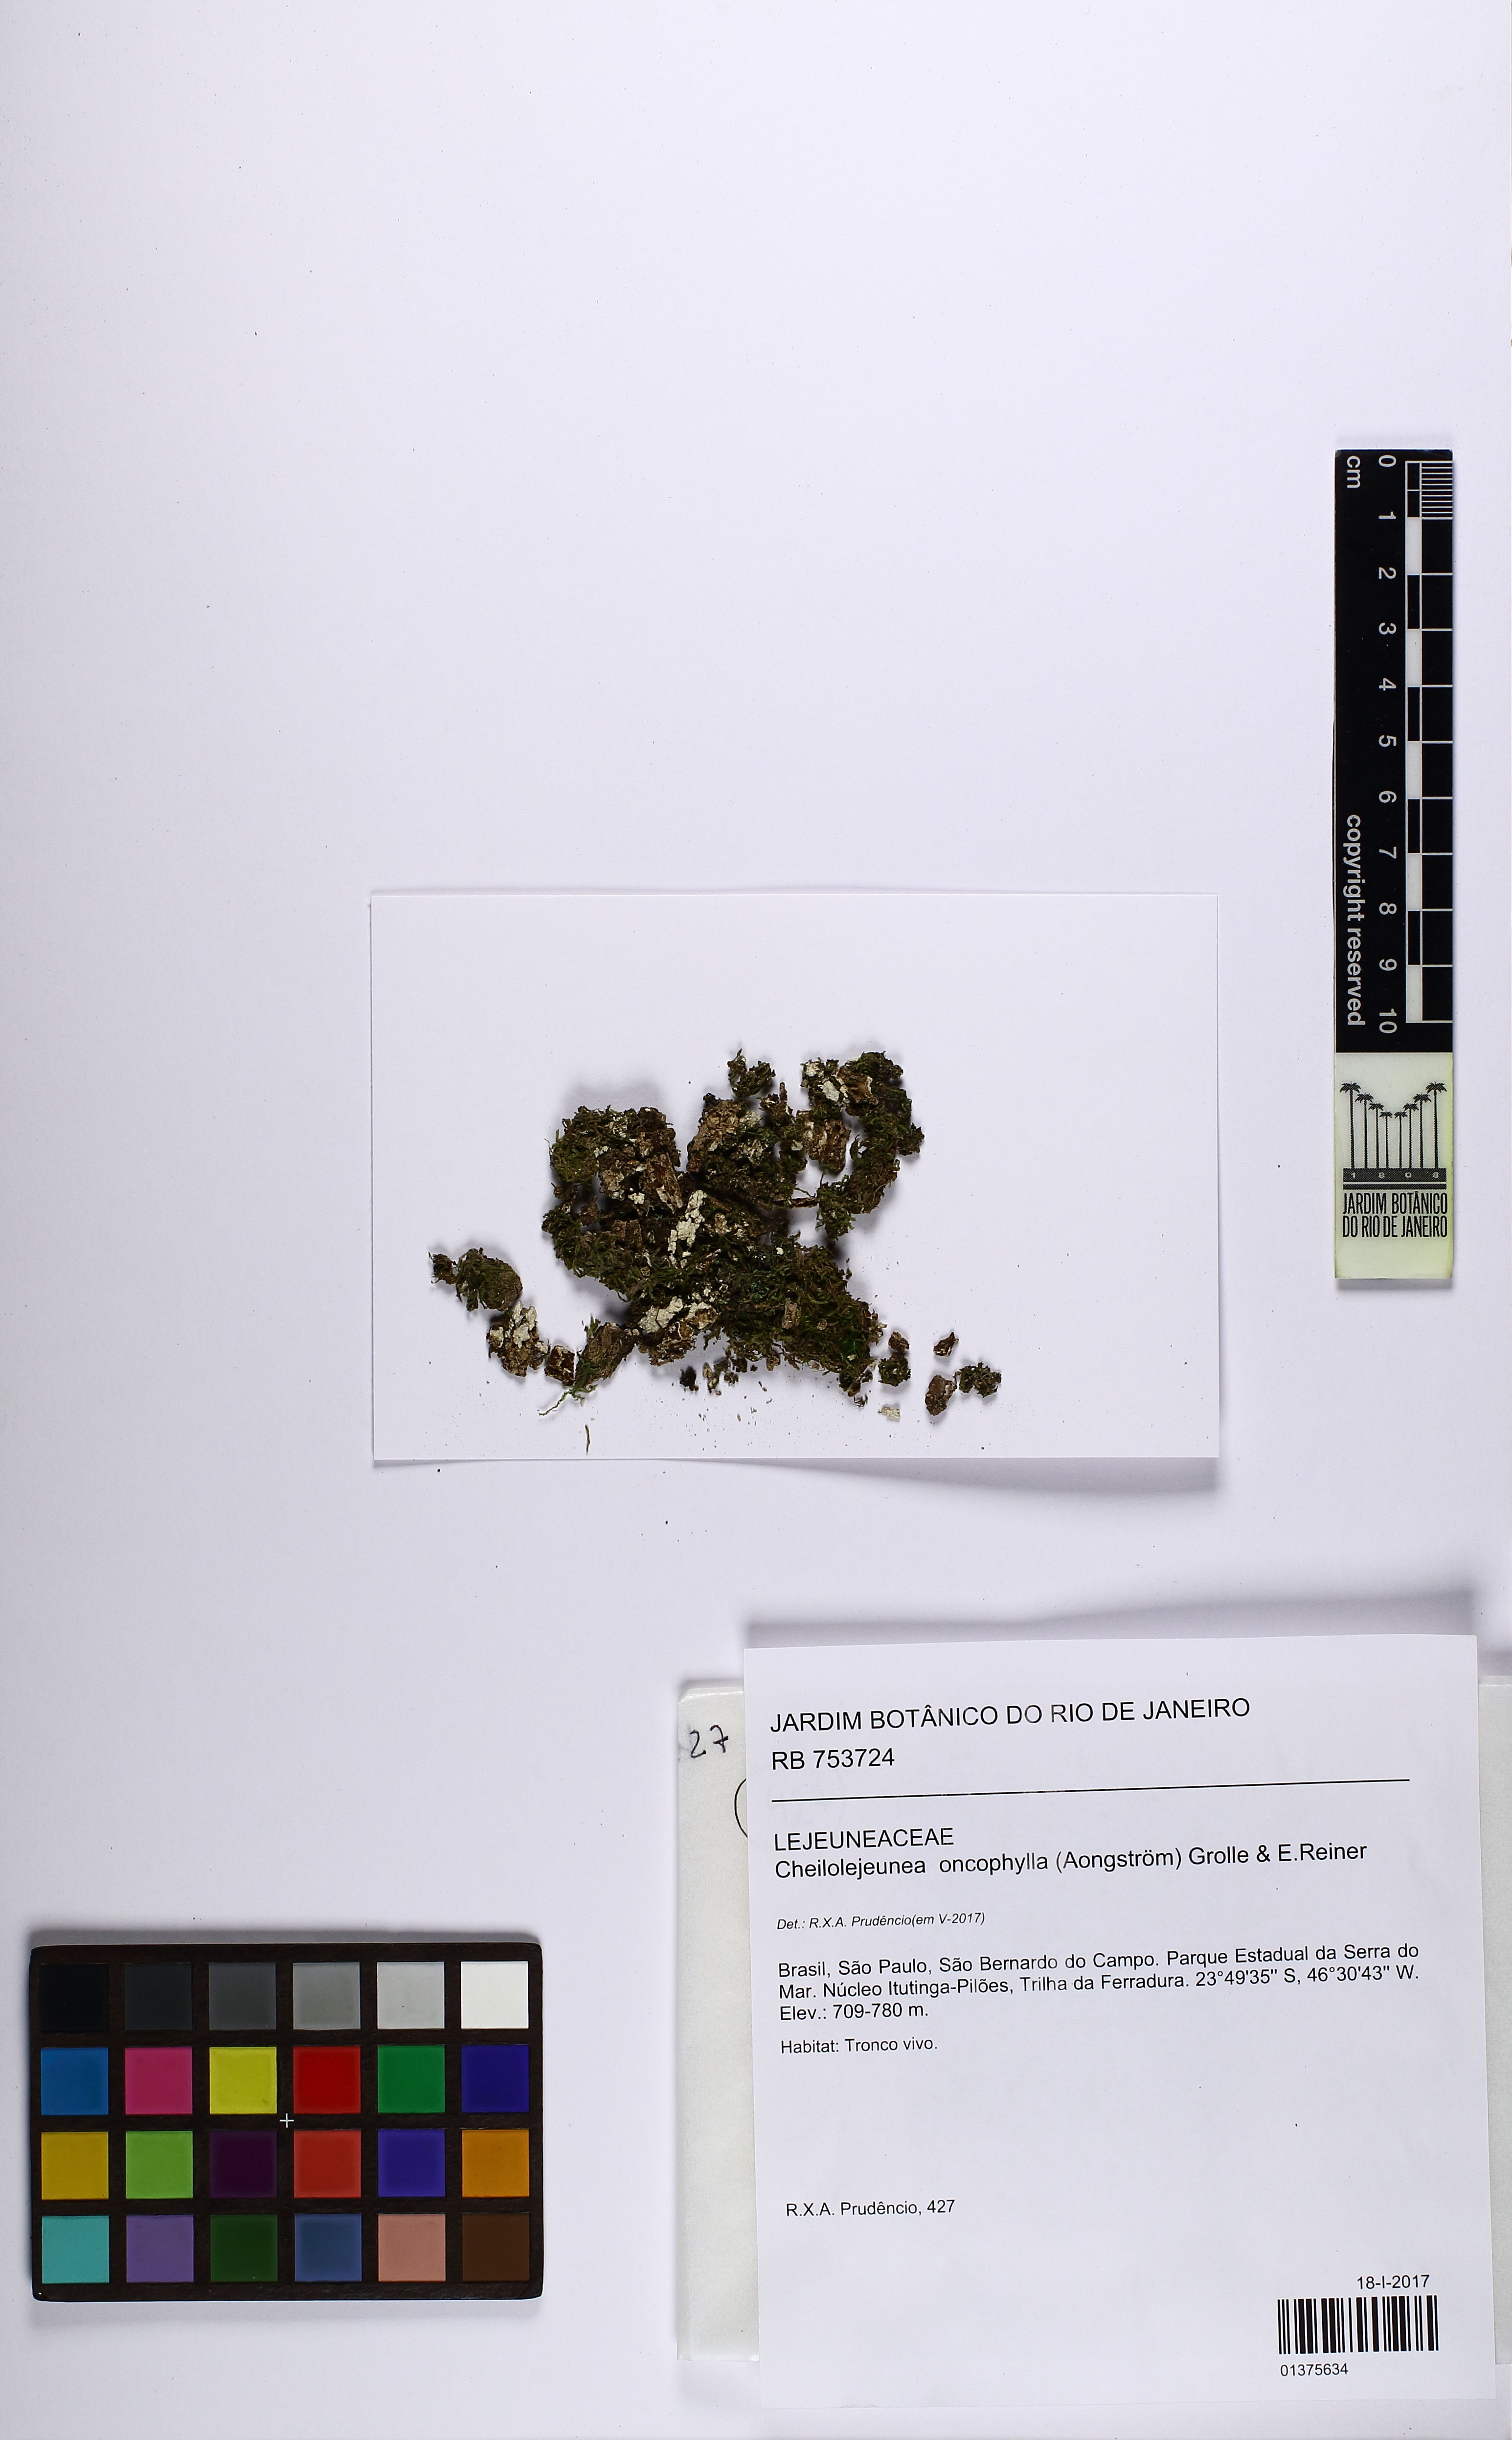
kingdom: Plantae
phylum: Marchantiophyta
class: Jungermanniopsida
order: Porellales
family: Lejeuneaceae
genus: Cheilolejeunea
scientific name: Cheilolejeunea lobulata
